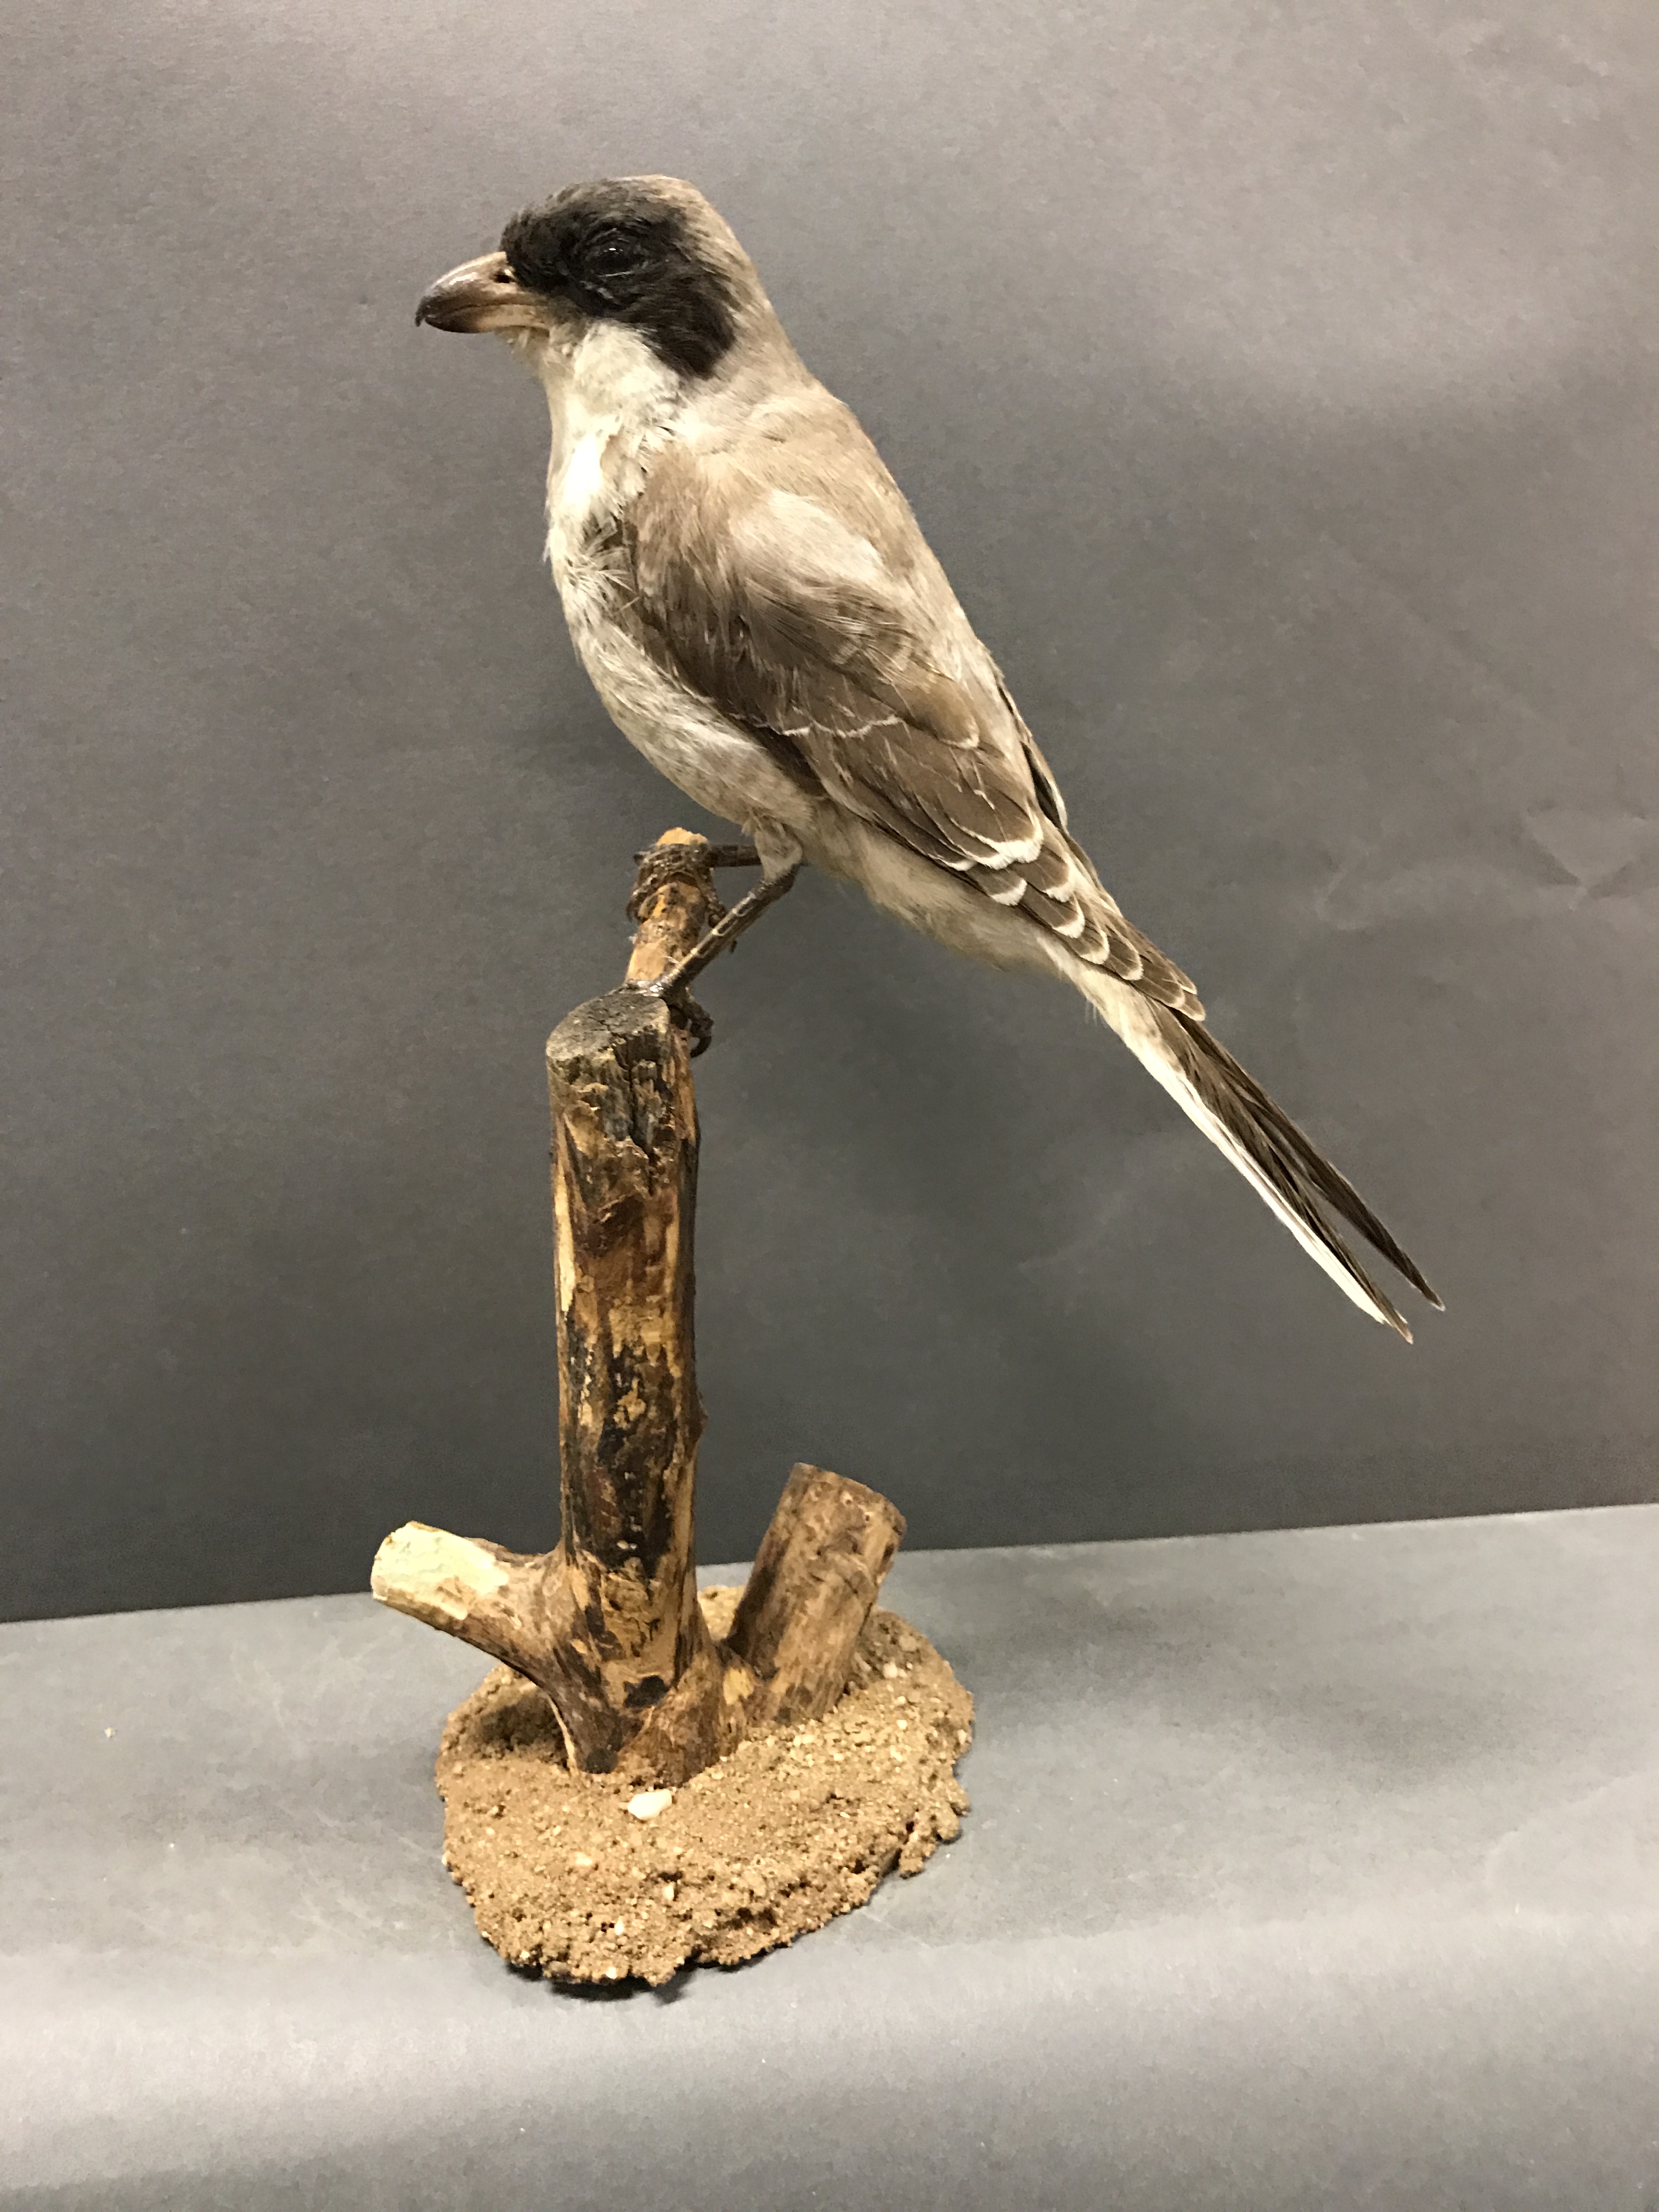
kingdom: Animalia
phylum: Chordata
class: Aves
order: Passeriformes
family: Laniidae
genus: Lanius
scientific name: Lanius minor
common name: Lesser grey shrike
